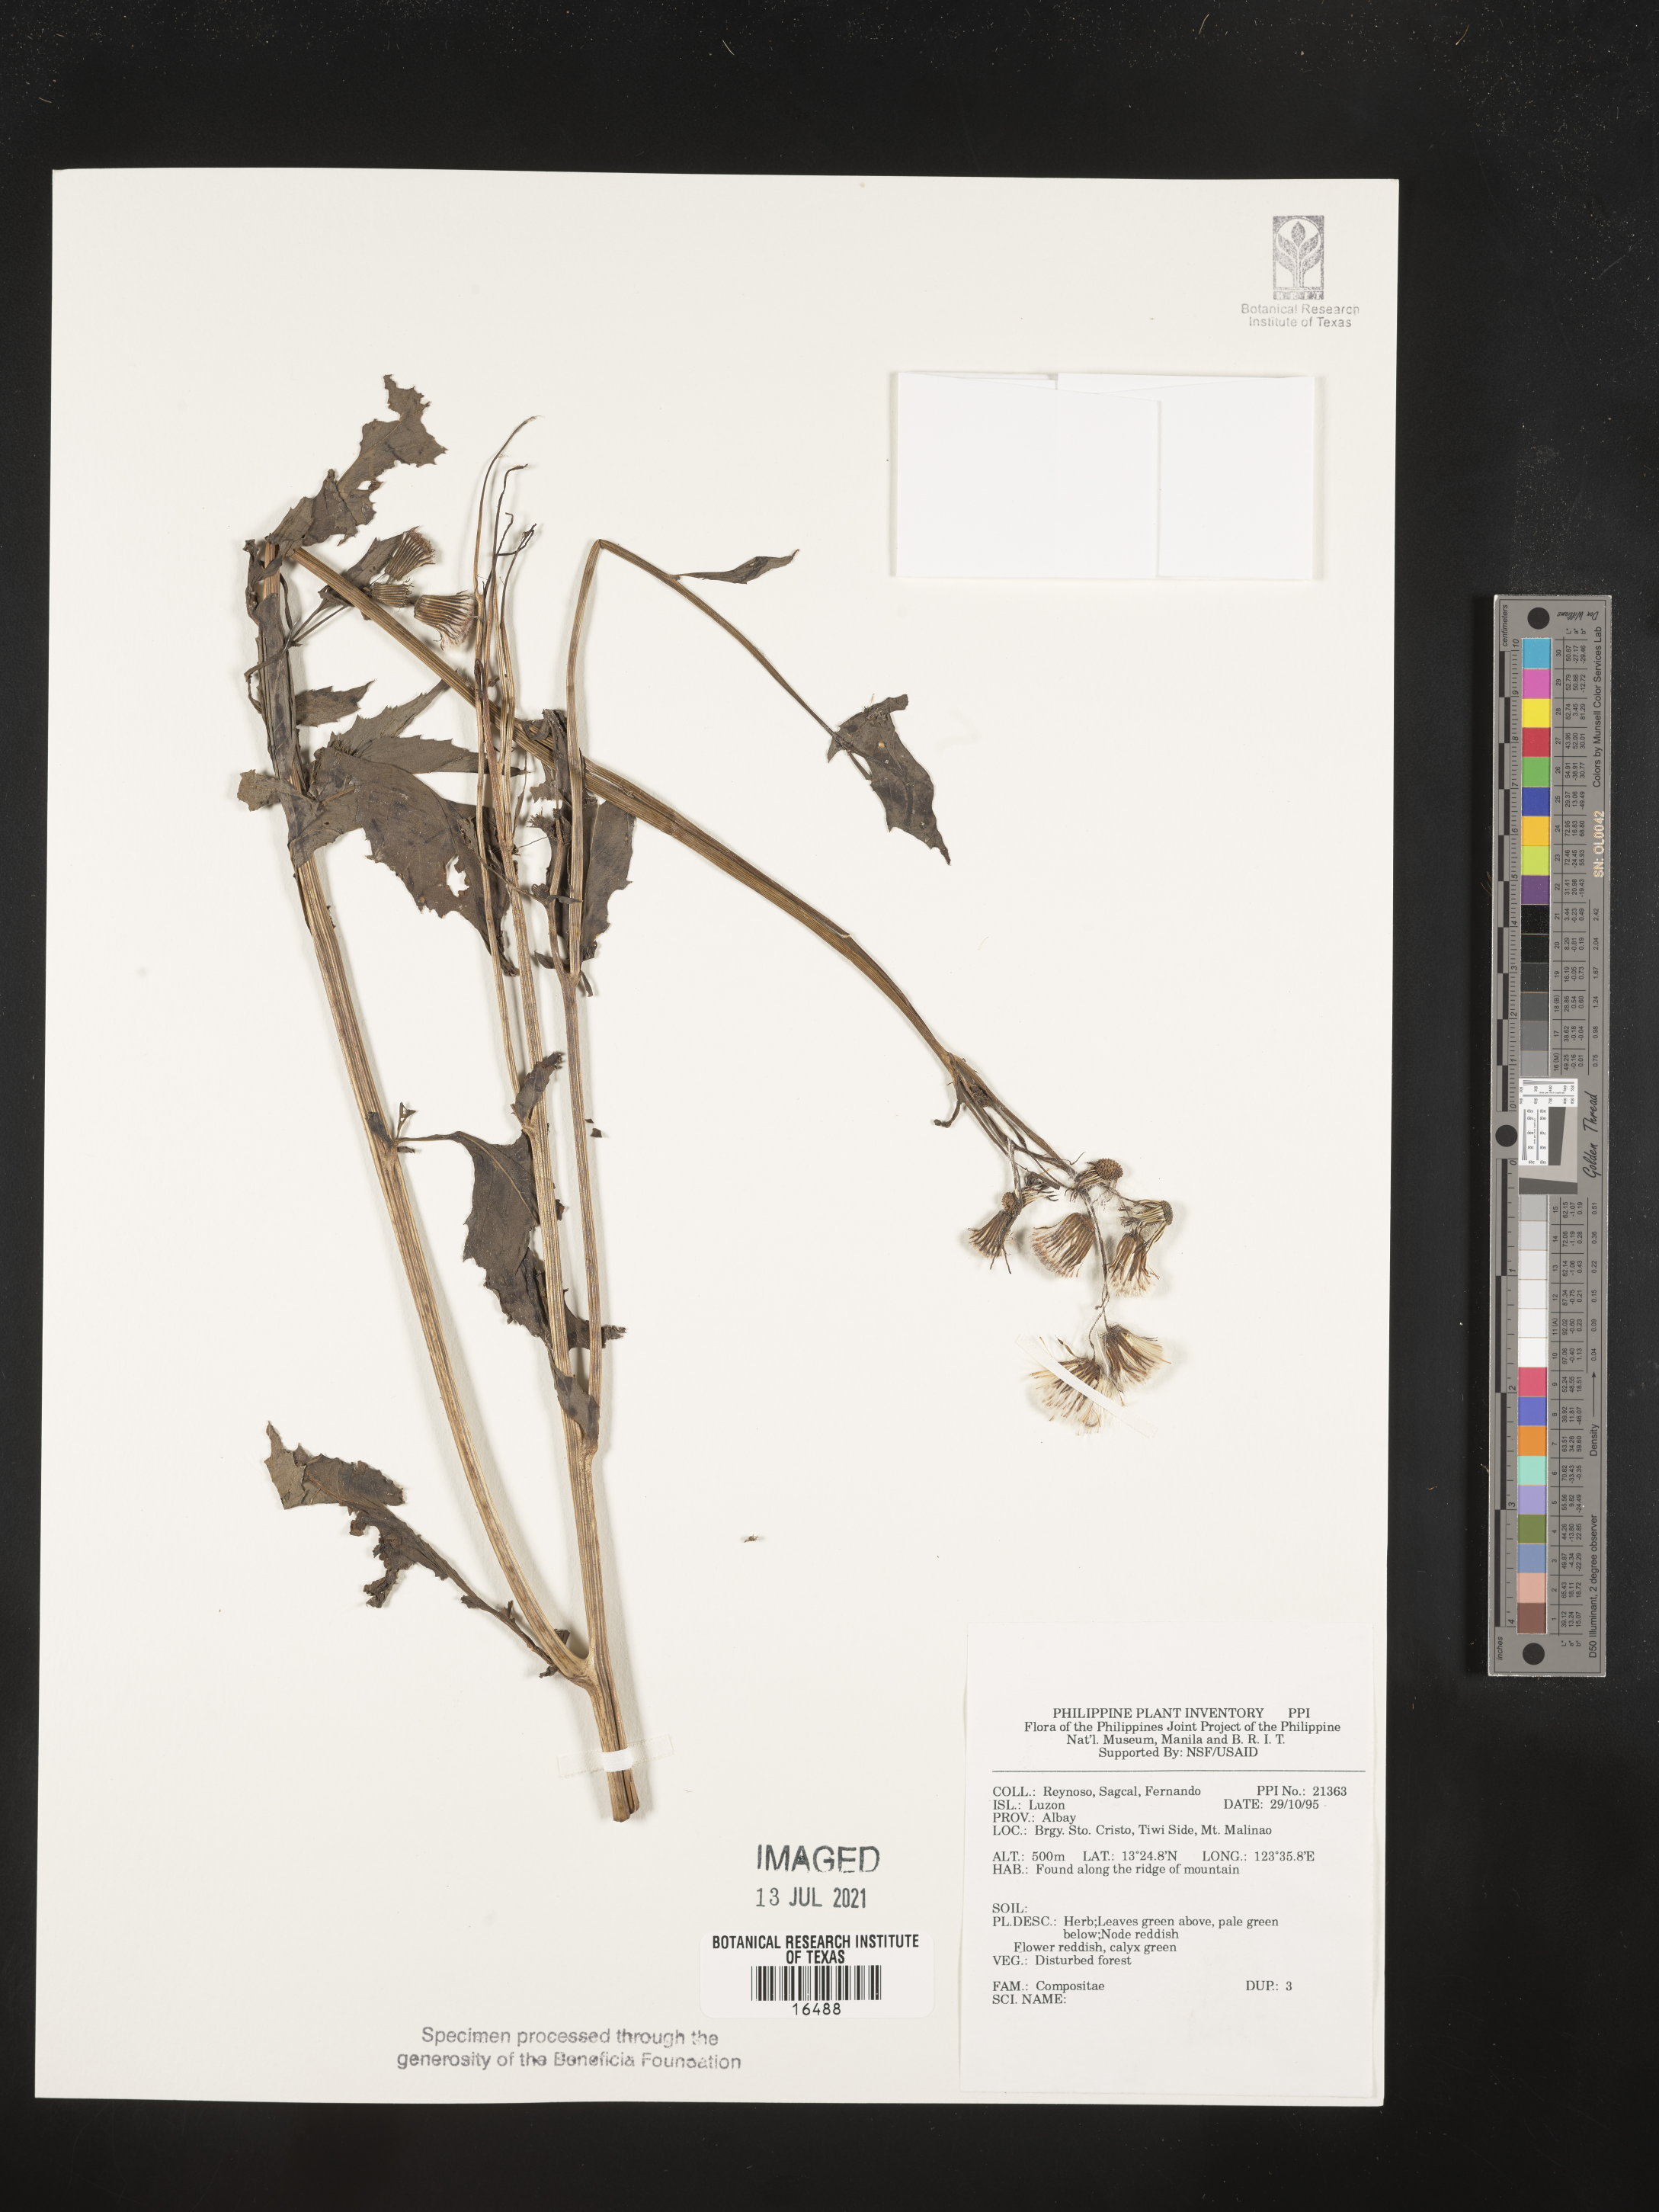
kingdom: Plantae
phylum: Tracheophyta
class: Magnoliopsida
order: Asterales
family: Asteraceae
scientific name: Asteraceae
